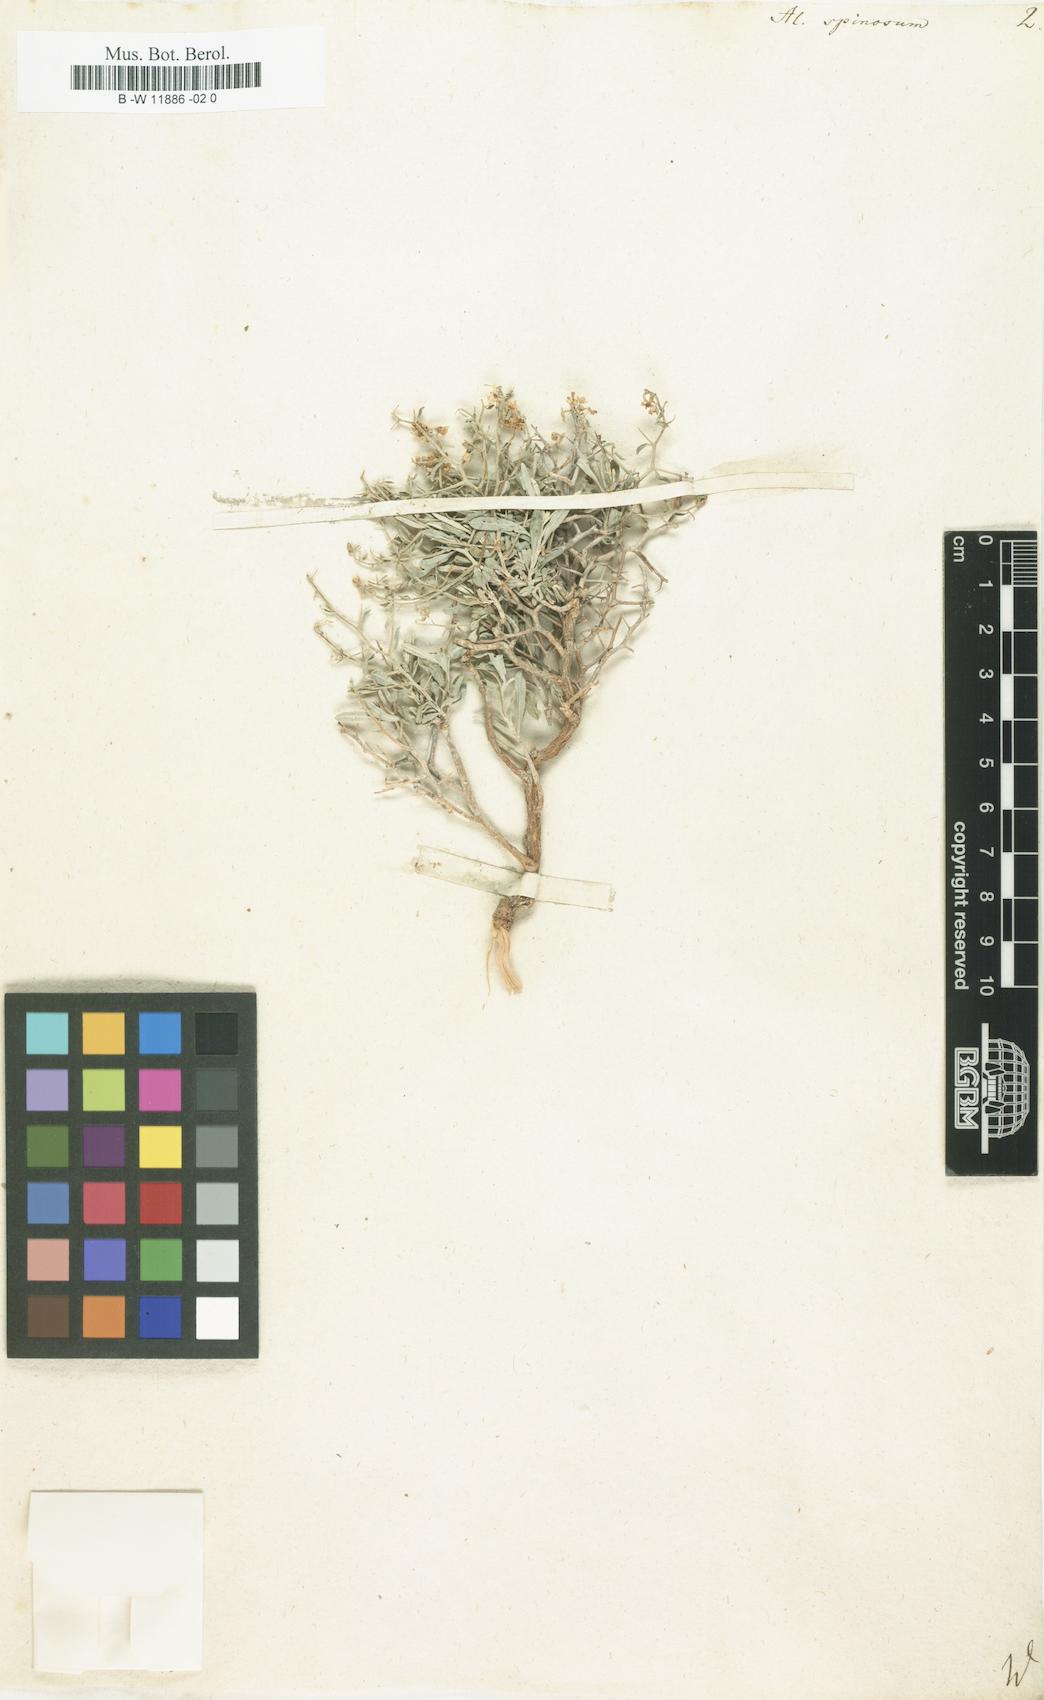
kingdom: Plantae
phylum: Tracheophyta
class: Magnoliopsida
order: Brassicales
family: Brassicaceae
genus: Hormathophylla
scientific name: Hormathophylla spinosa
